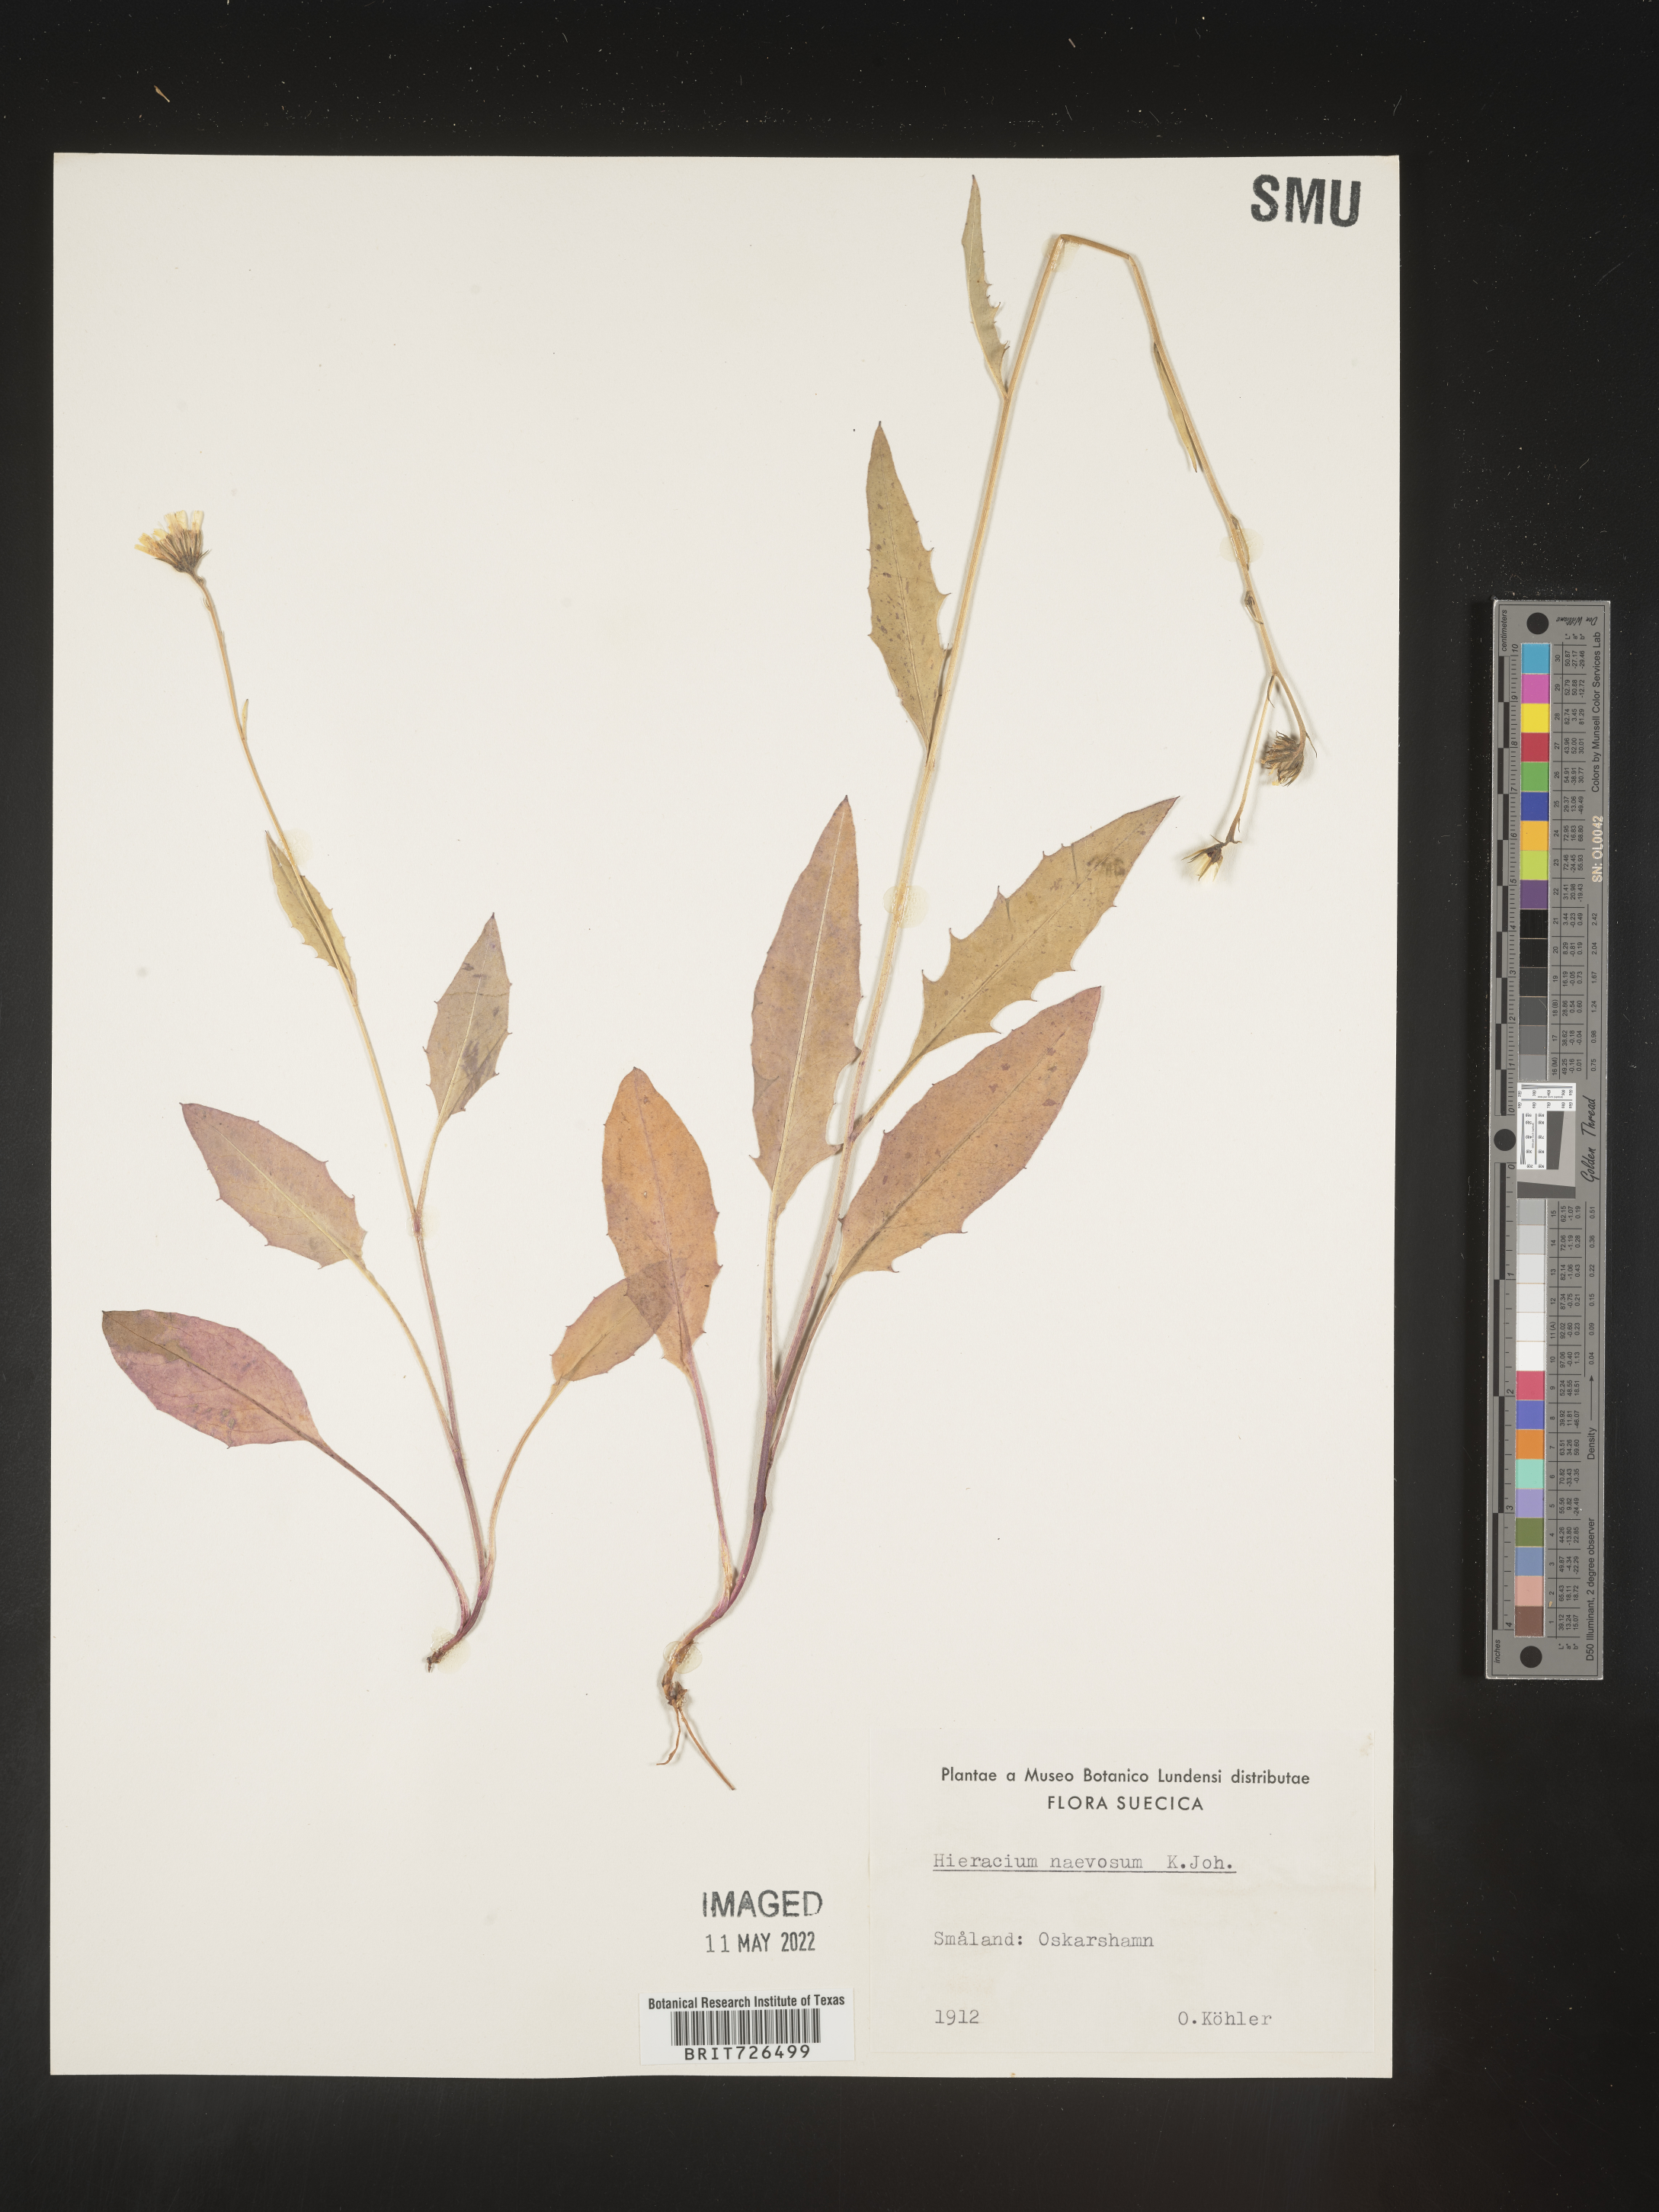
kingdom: Plantae
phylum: Tracheophyta
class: Magnoliopsida
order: Asterales
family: Asteraceae
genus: Hieracium
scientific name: Hieracium
